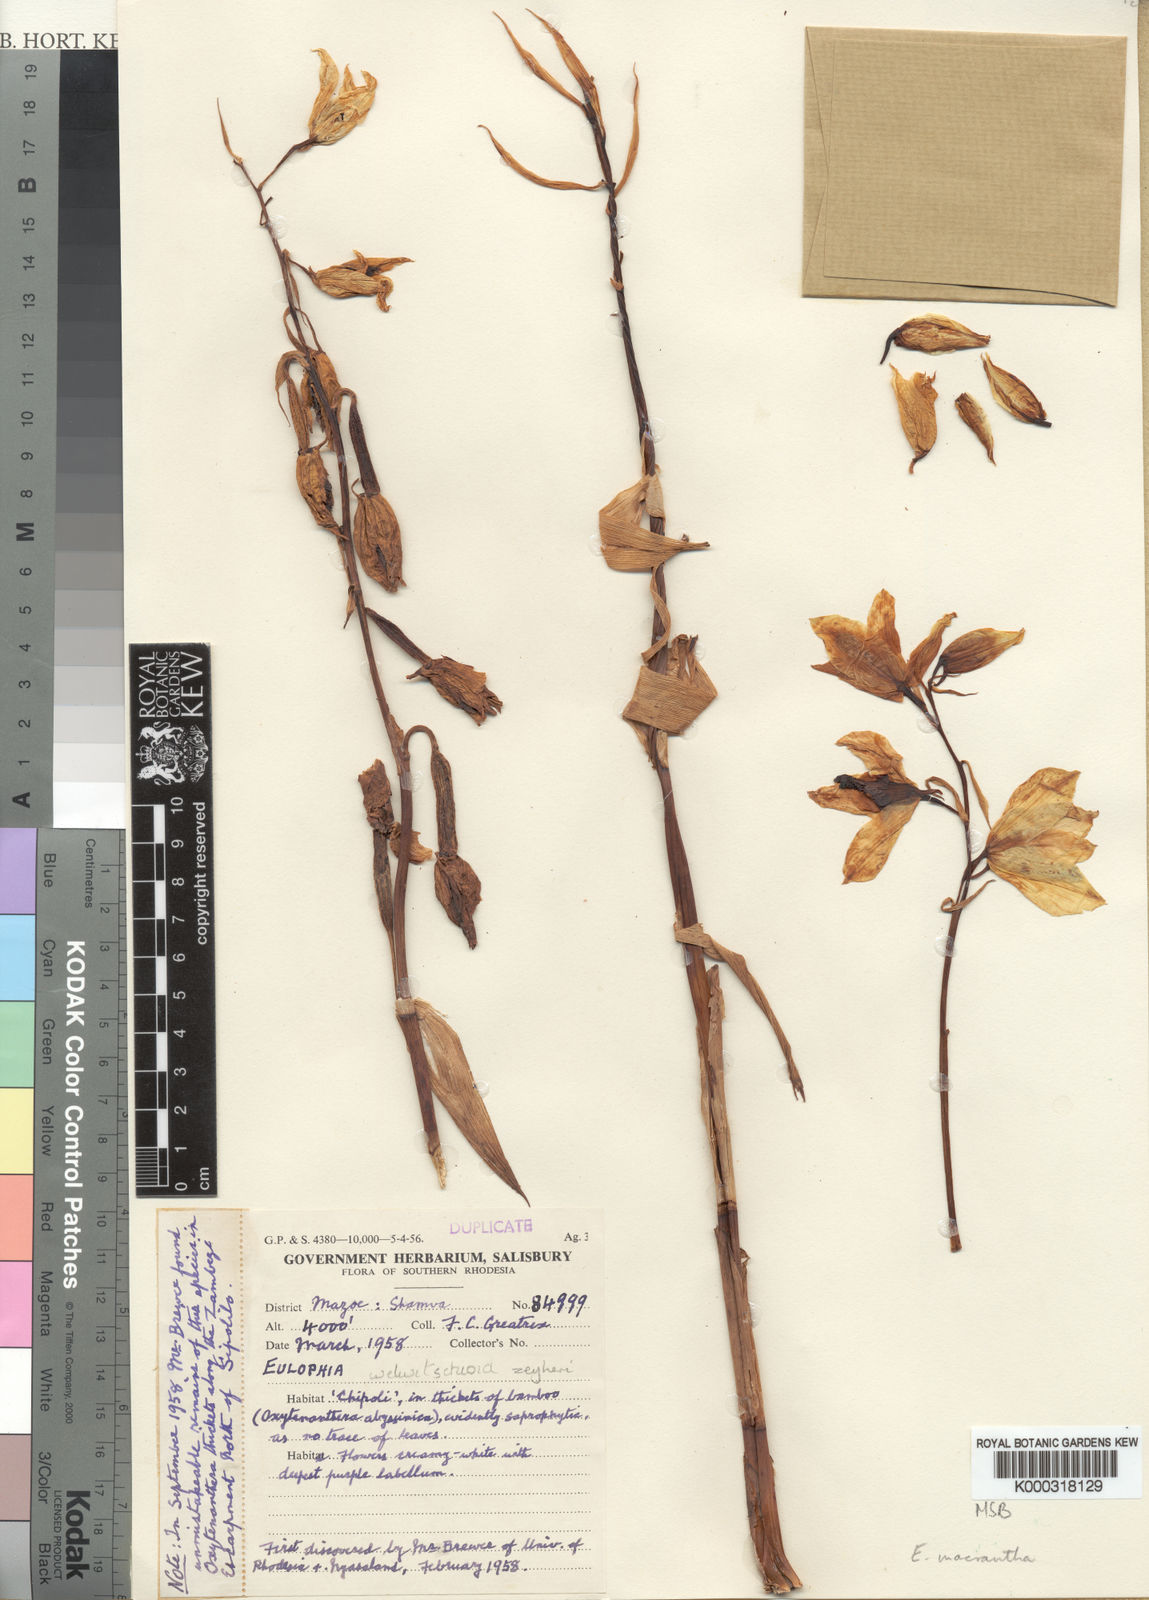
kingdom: Plantae
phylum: Tracheophyta
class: Liliopsida
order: Asparagales
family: Orchidaceae
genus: Eulophia
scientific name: Eulophia macrantha
